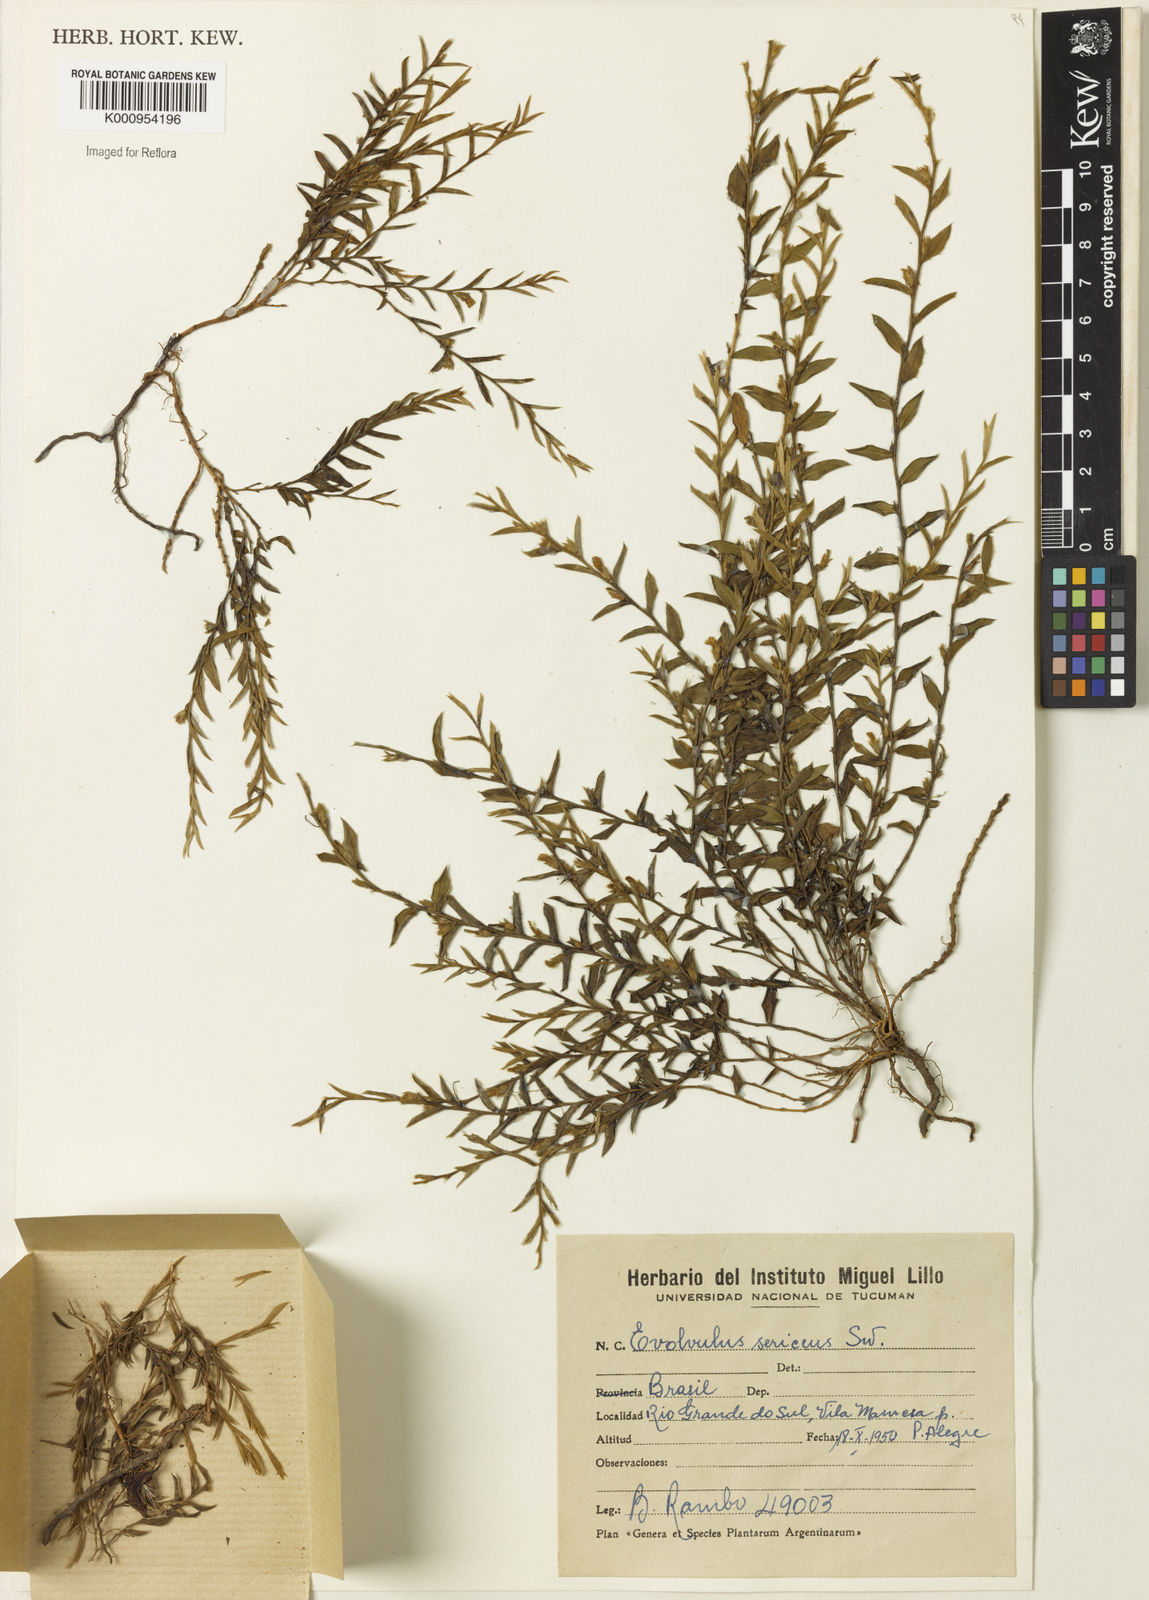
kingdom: Plantae
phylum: Tracheophyta
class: Magnoliopsida
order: Solanales
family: Convolvulaceae
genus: Evolvulus
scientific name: Evolvulus
